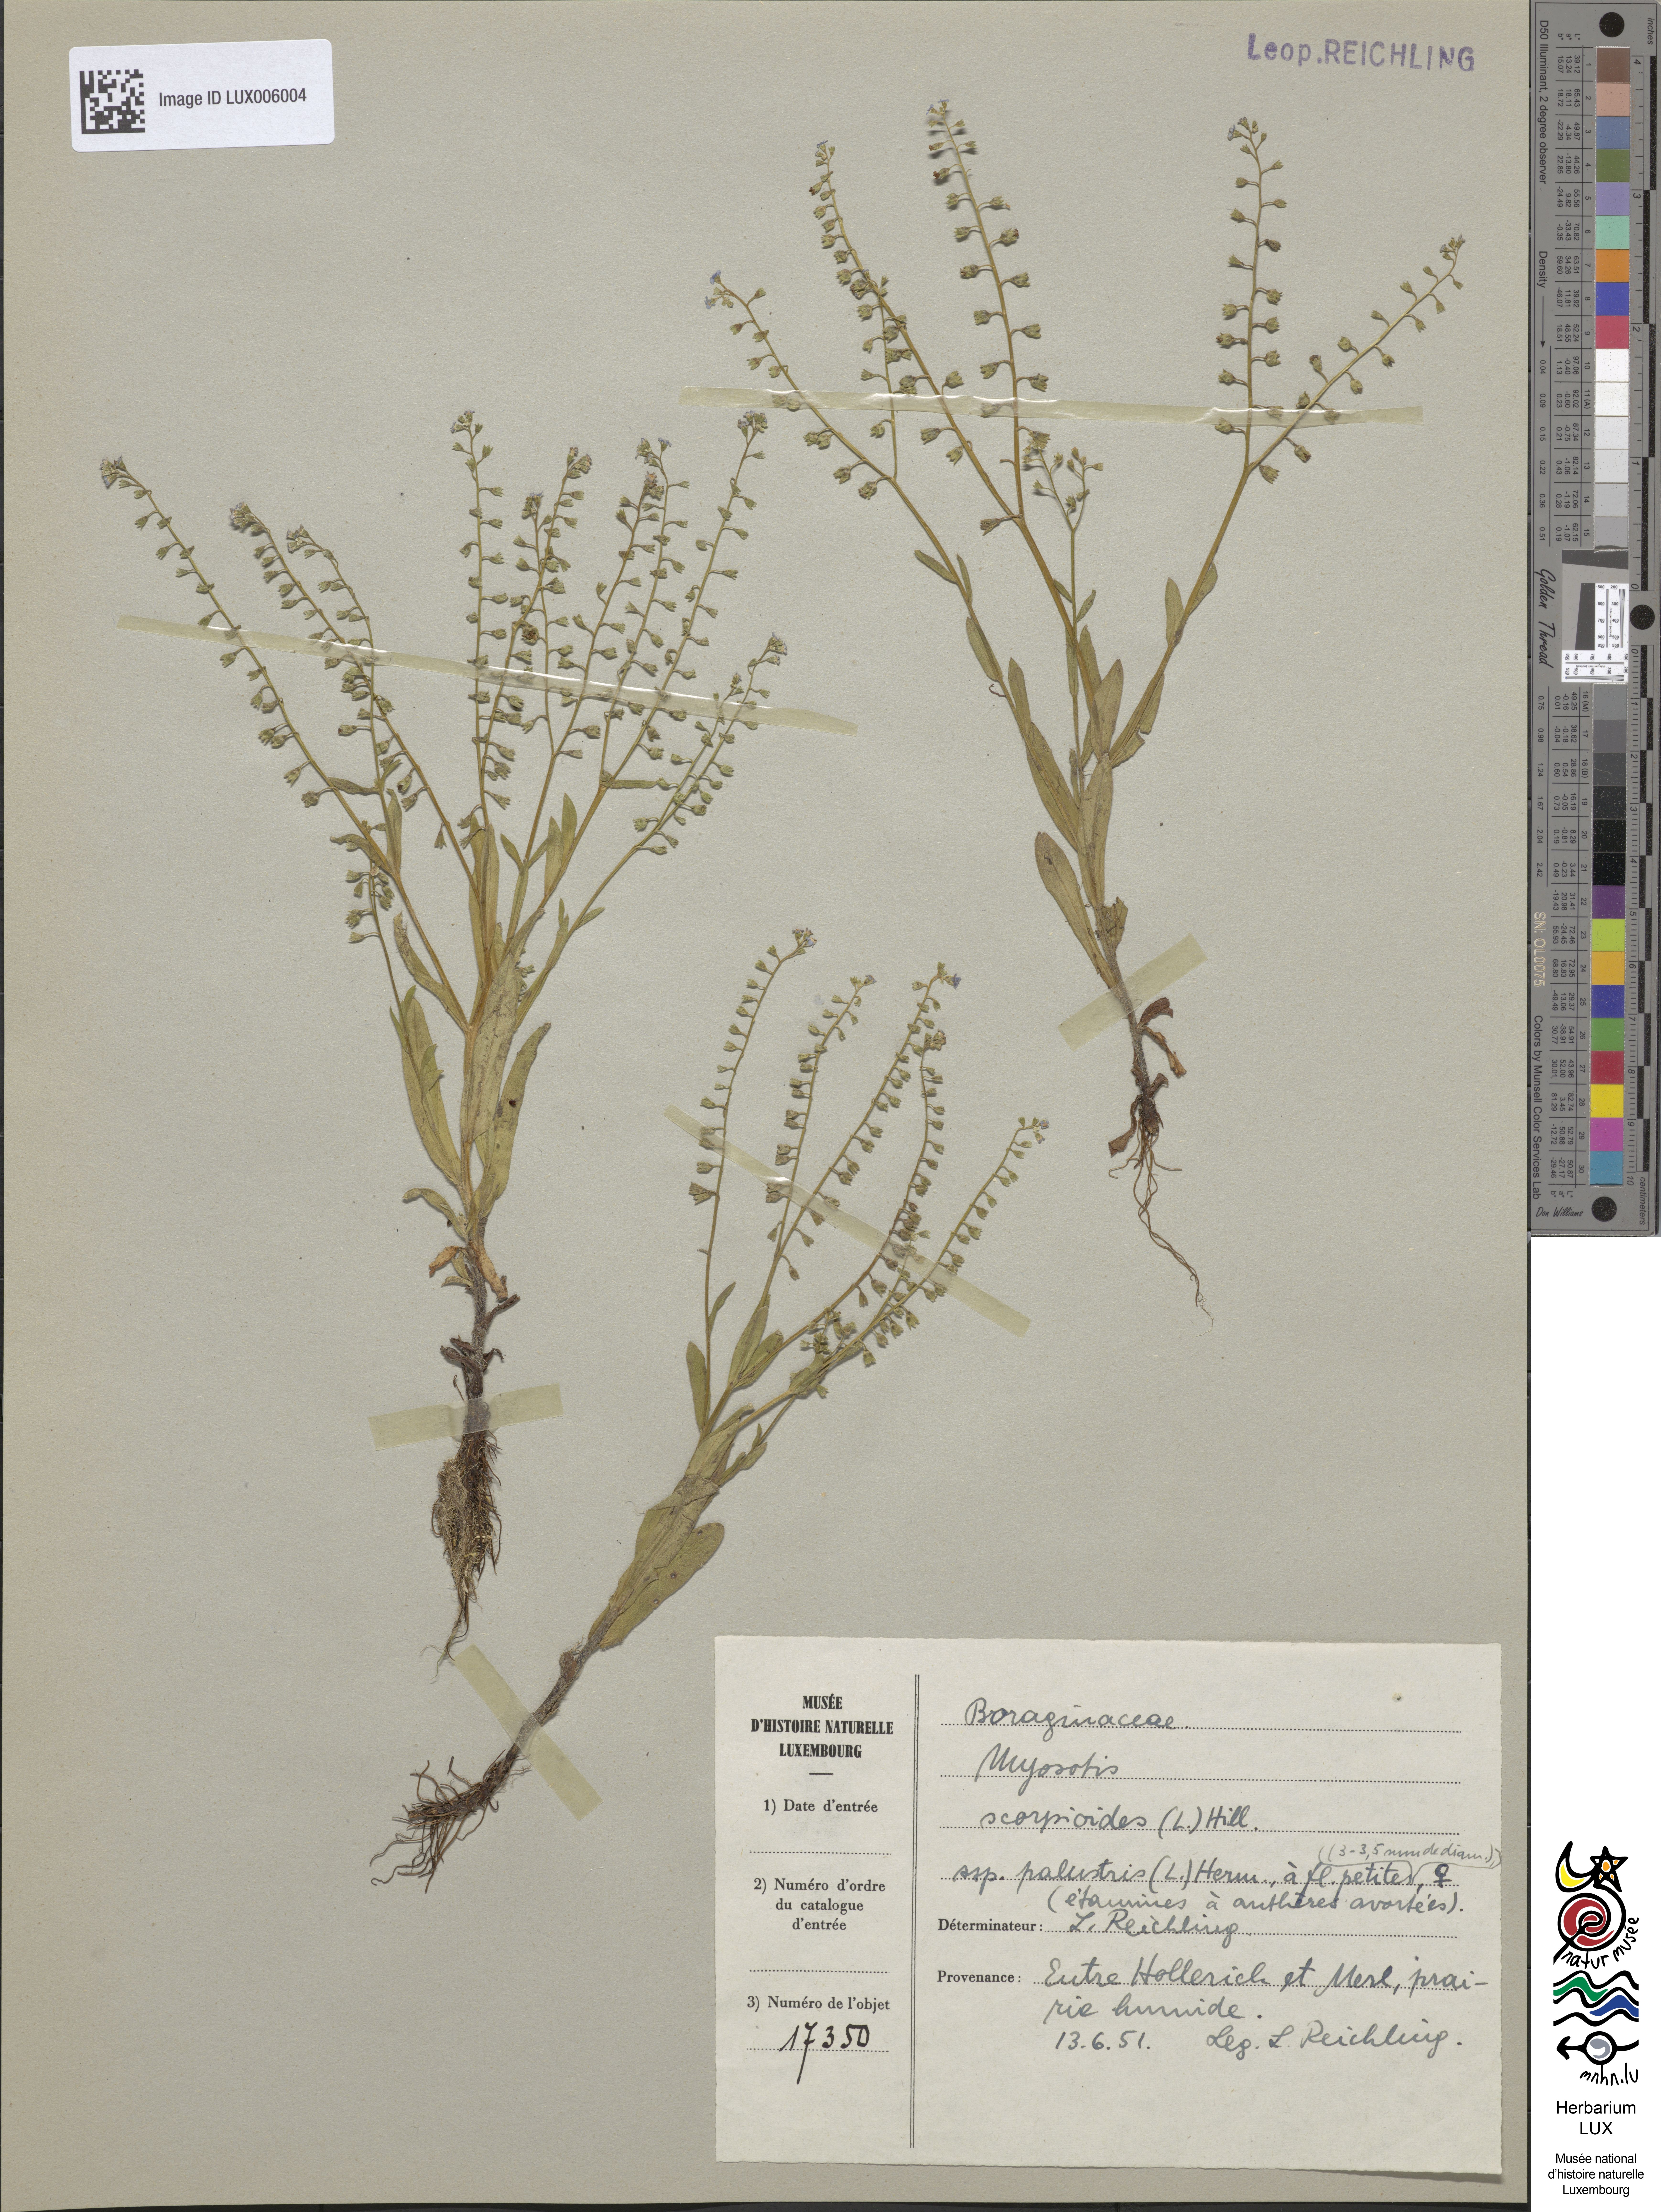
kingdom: Plantae
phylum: Tracheophyta
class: Magnoliopsida
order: Boraginales
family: Boraginaceae
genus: Myosotis
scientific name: Myosotis scorpioides
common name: Water forget-me-not
